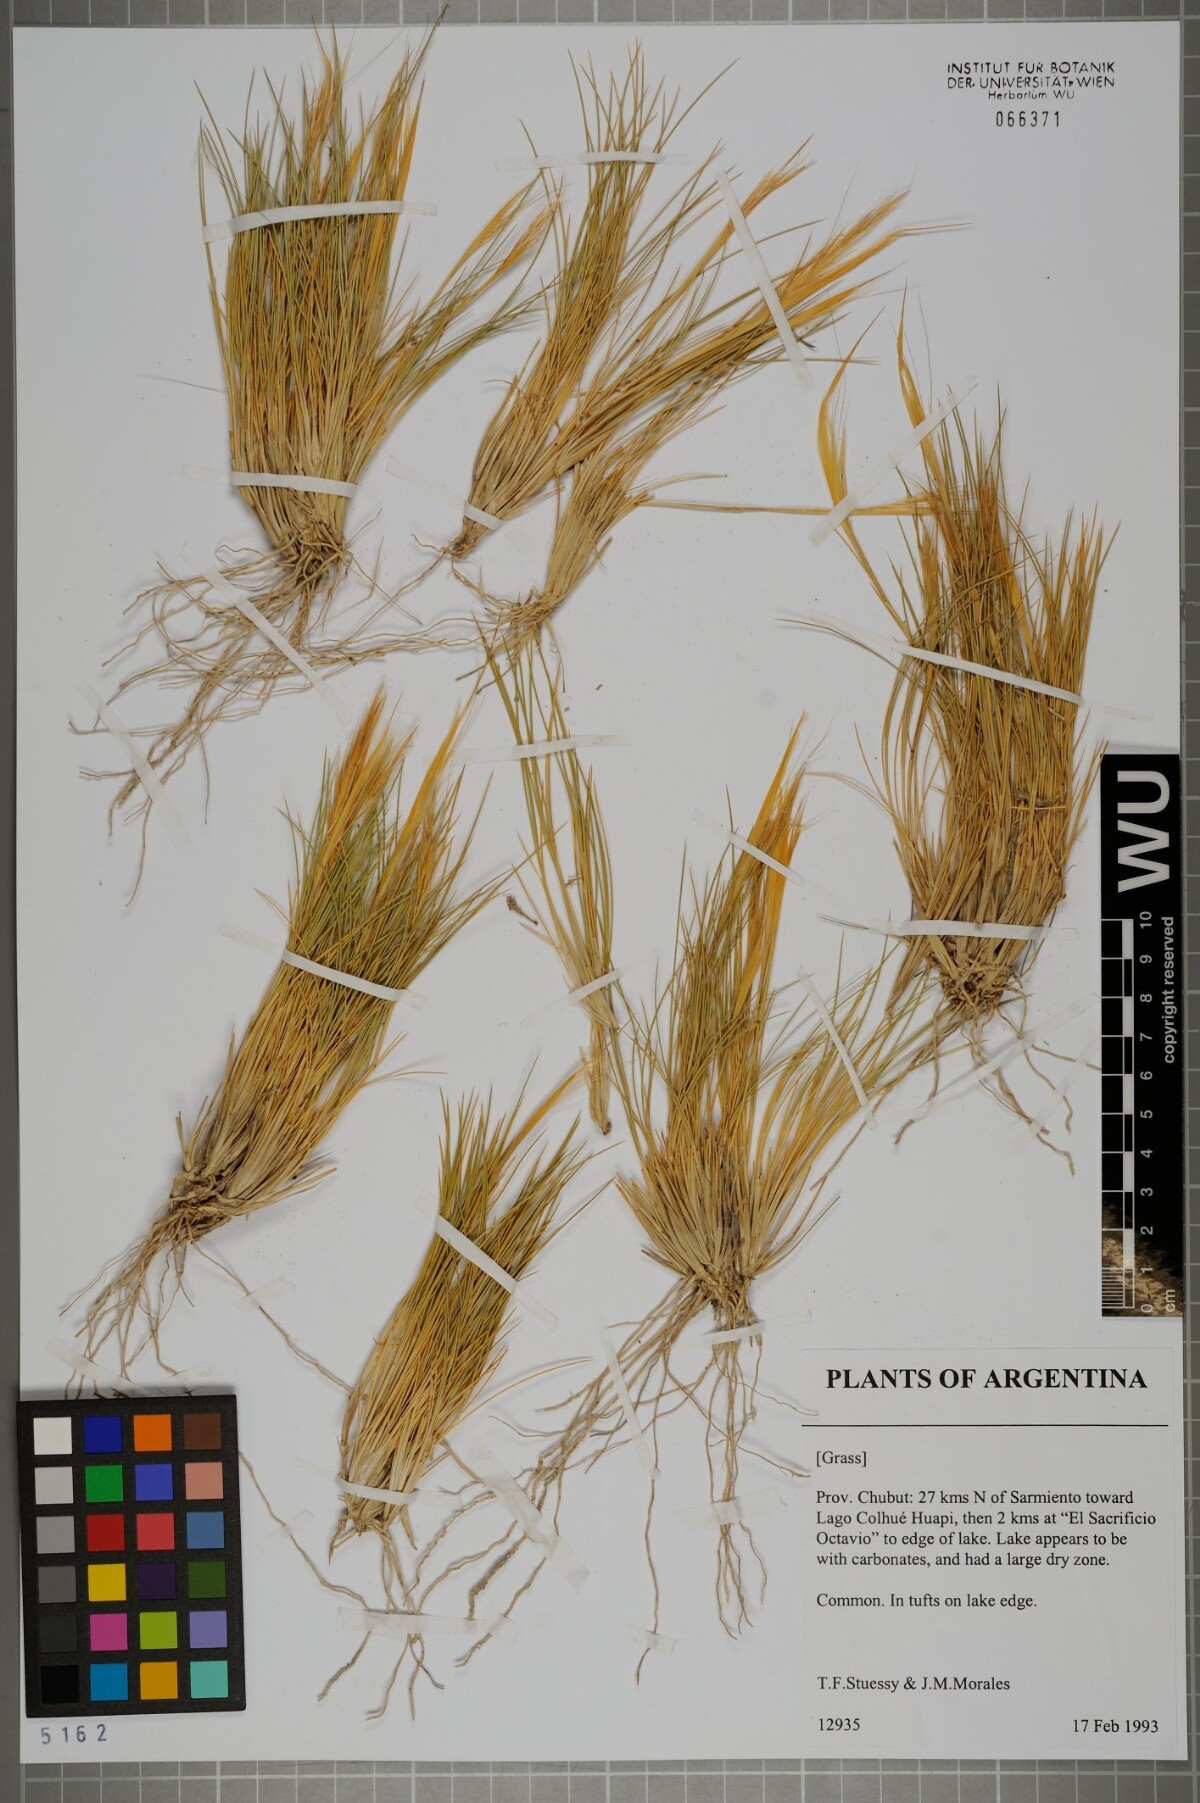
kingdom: Plantae
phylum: Tracheophyta
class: Liliopsida
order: Poales
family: Poaceae
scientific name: Poaceae
